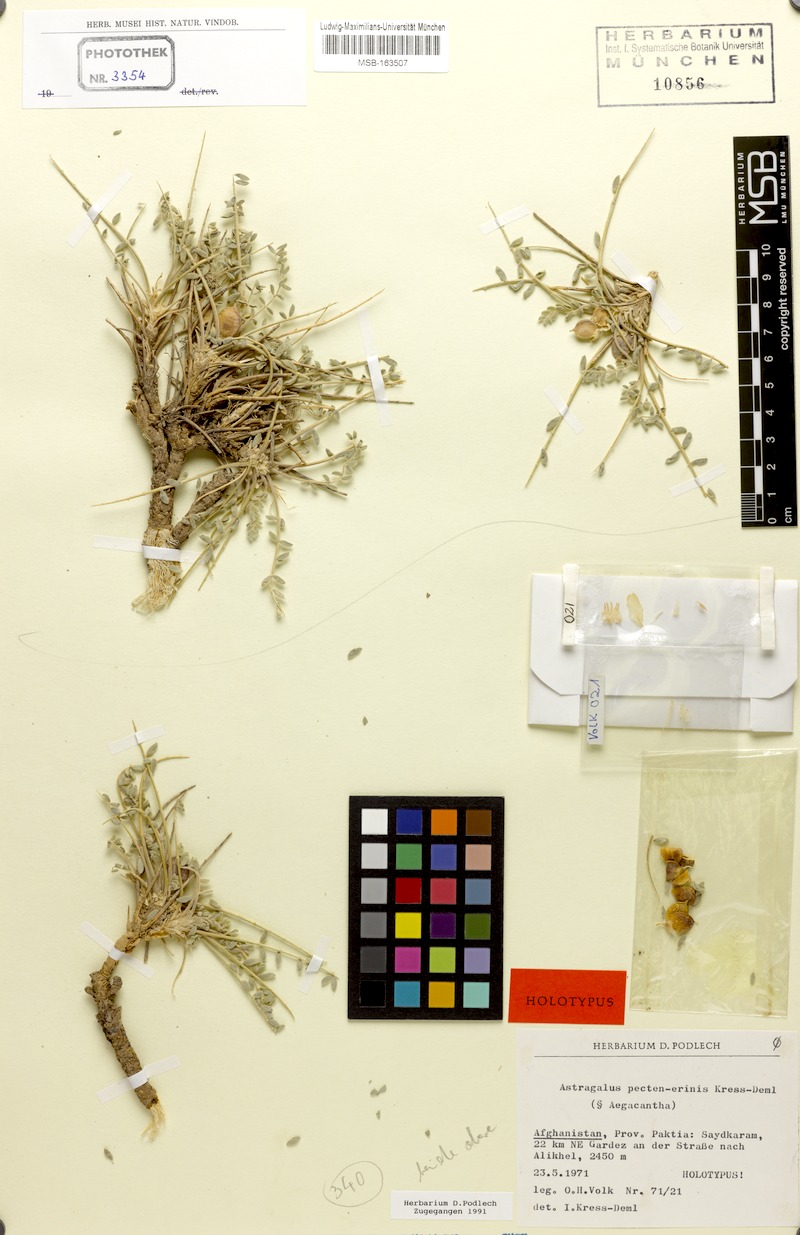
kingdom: Plantae
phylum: Tracheophyta
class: Magnoliopsida
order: Fabales
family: Fabaceae
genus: Astragalus
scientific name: Astragalus pecten-erinis
